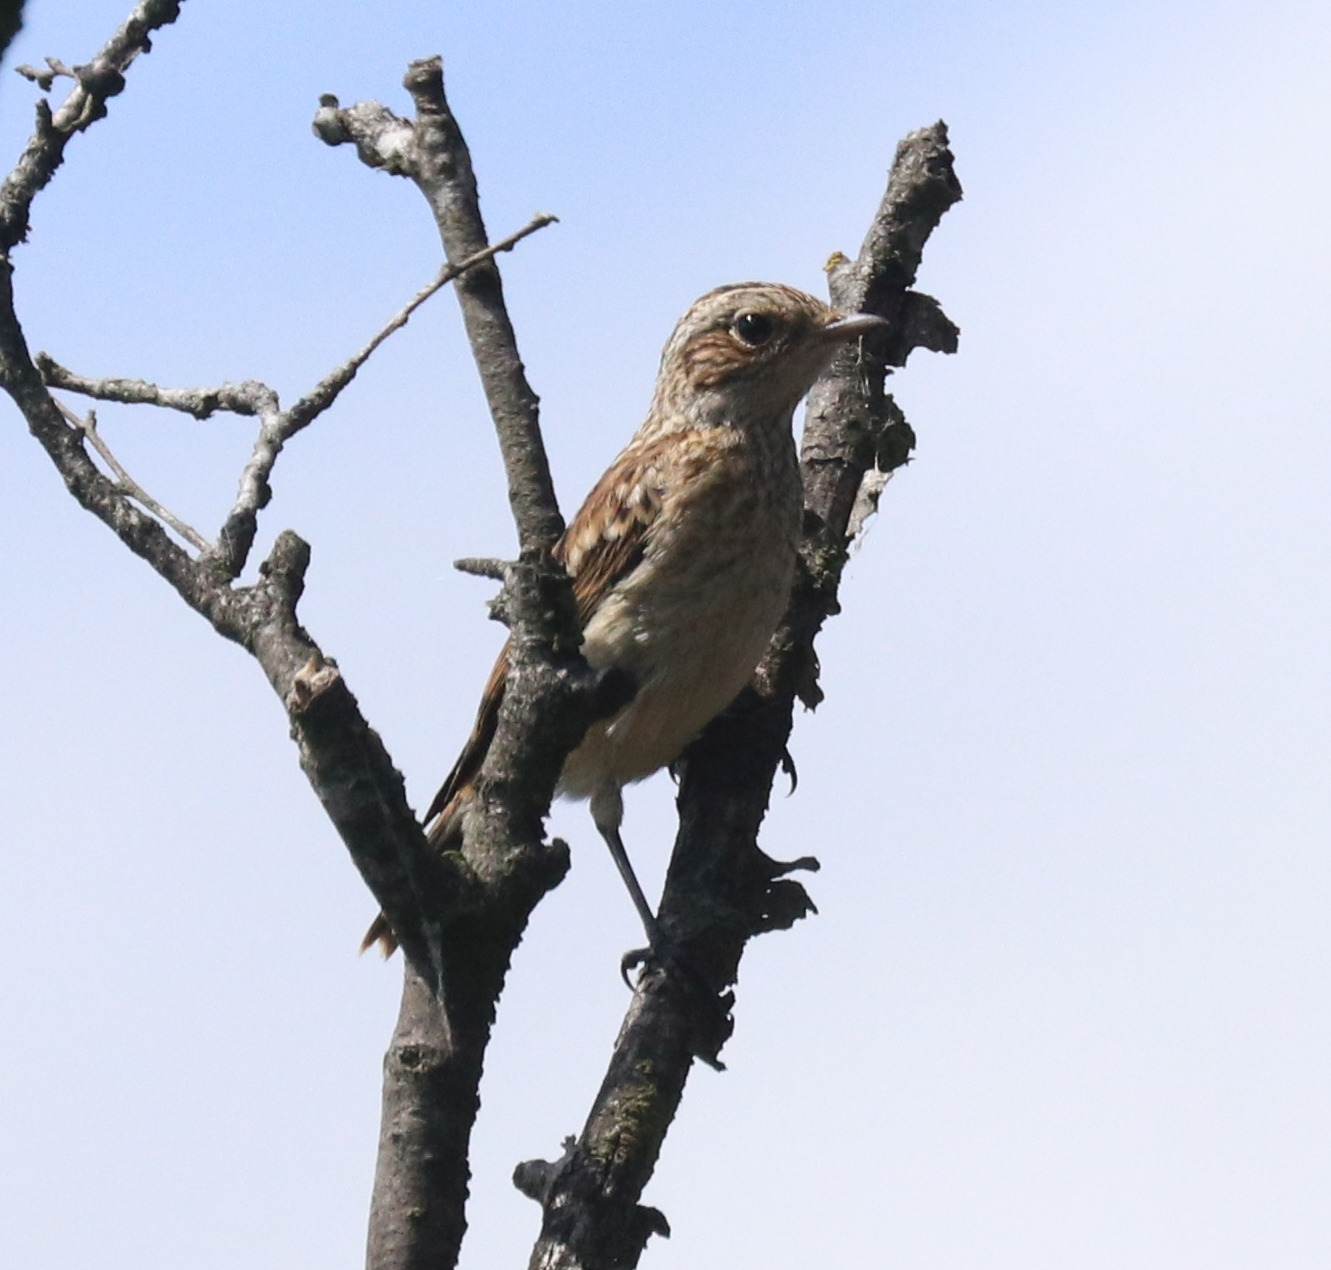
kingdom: Animalia
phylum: Chordata
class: Aves
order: Passeriformes
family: Muscicapidae
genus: Saxicola
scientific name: Saxicola rubetra
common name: Bynkefugl
